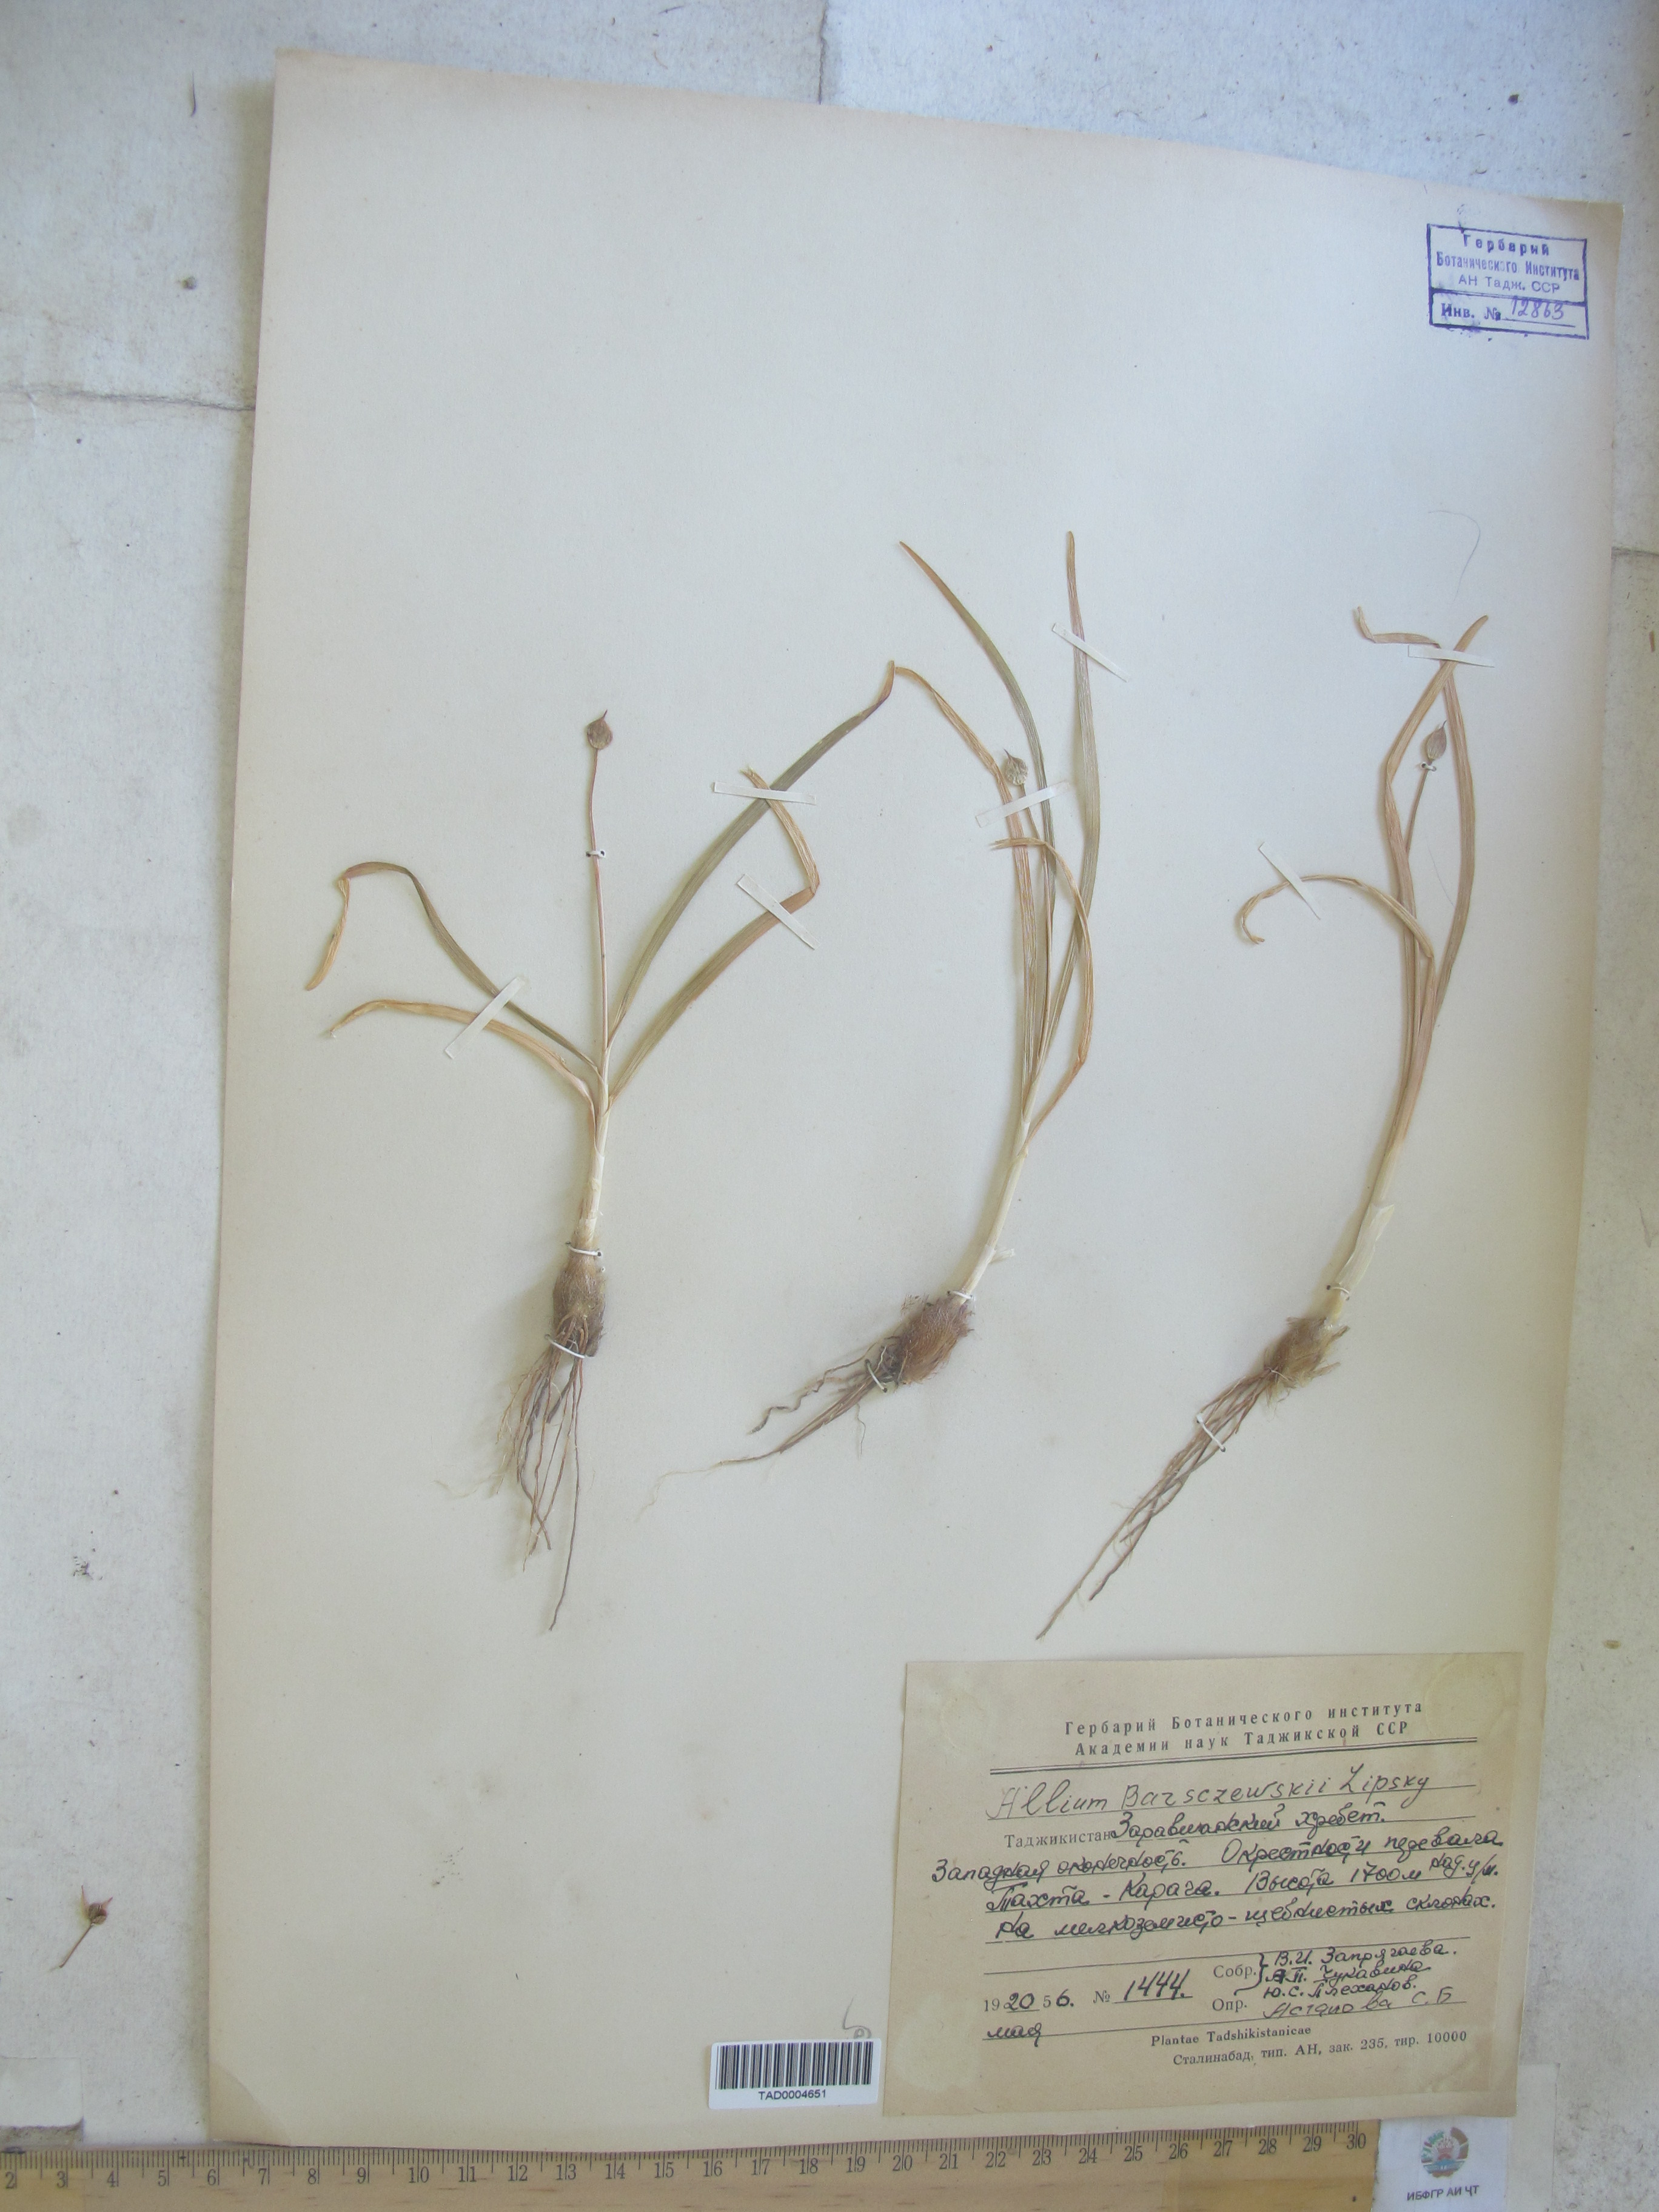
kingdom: Plantae
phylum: Tracheophyta
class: Liliopsida
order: Asparagales
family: Amaryllidaceae
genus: Allium
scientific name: Allium barsczewskii
